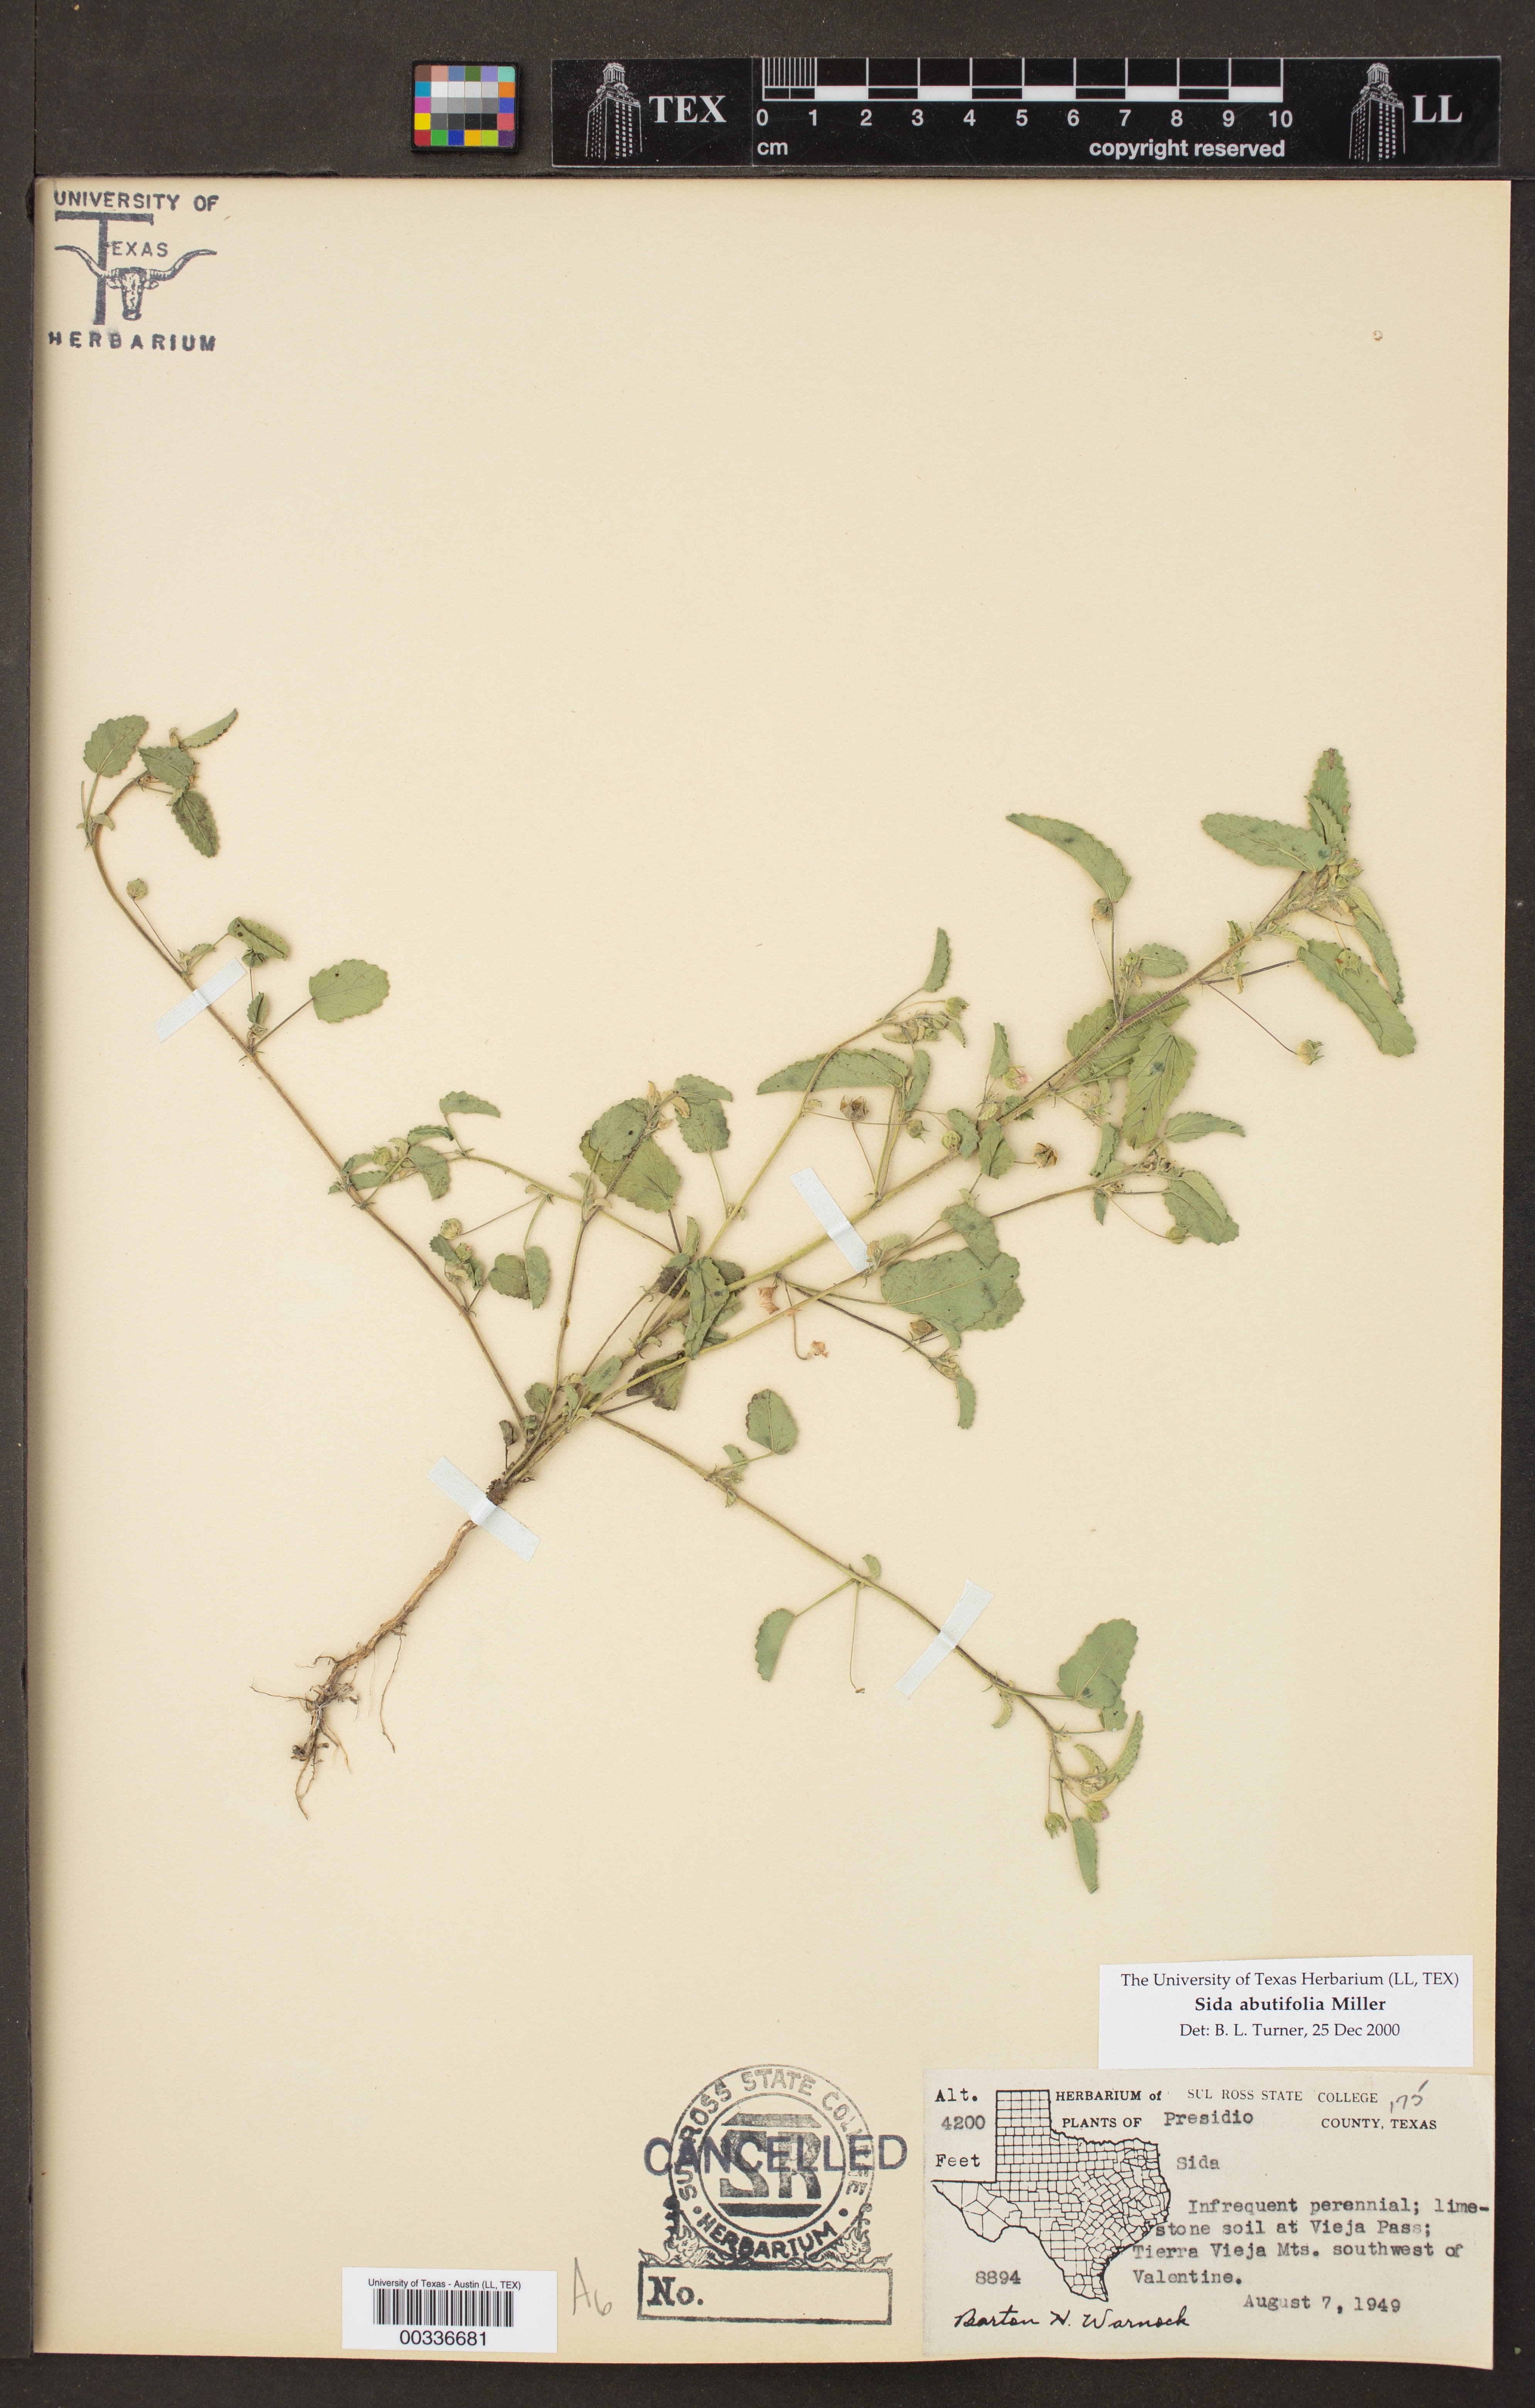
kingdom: Plantae
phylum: Tracheophyta
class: Magnoliopsida
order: Malvales
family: Malvaceae
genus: Sida
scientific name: Sida abutilifolia
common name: Spreading fanpetals
